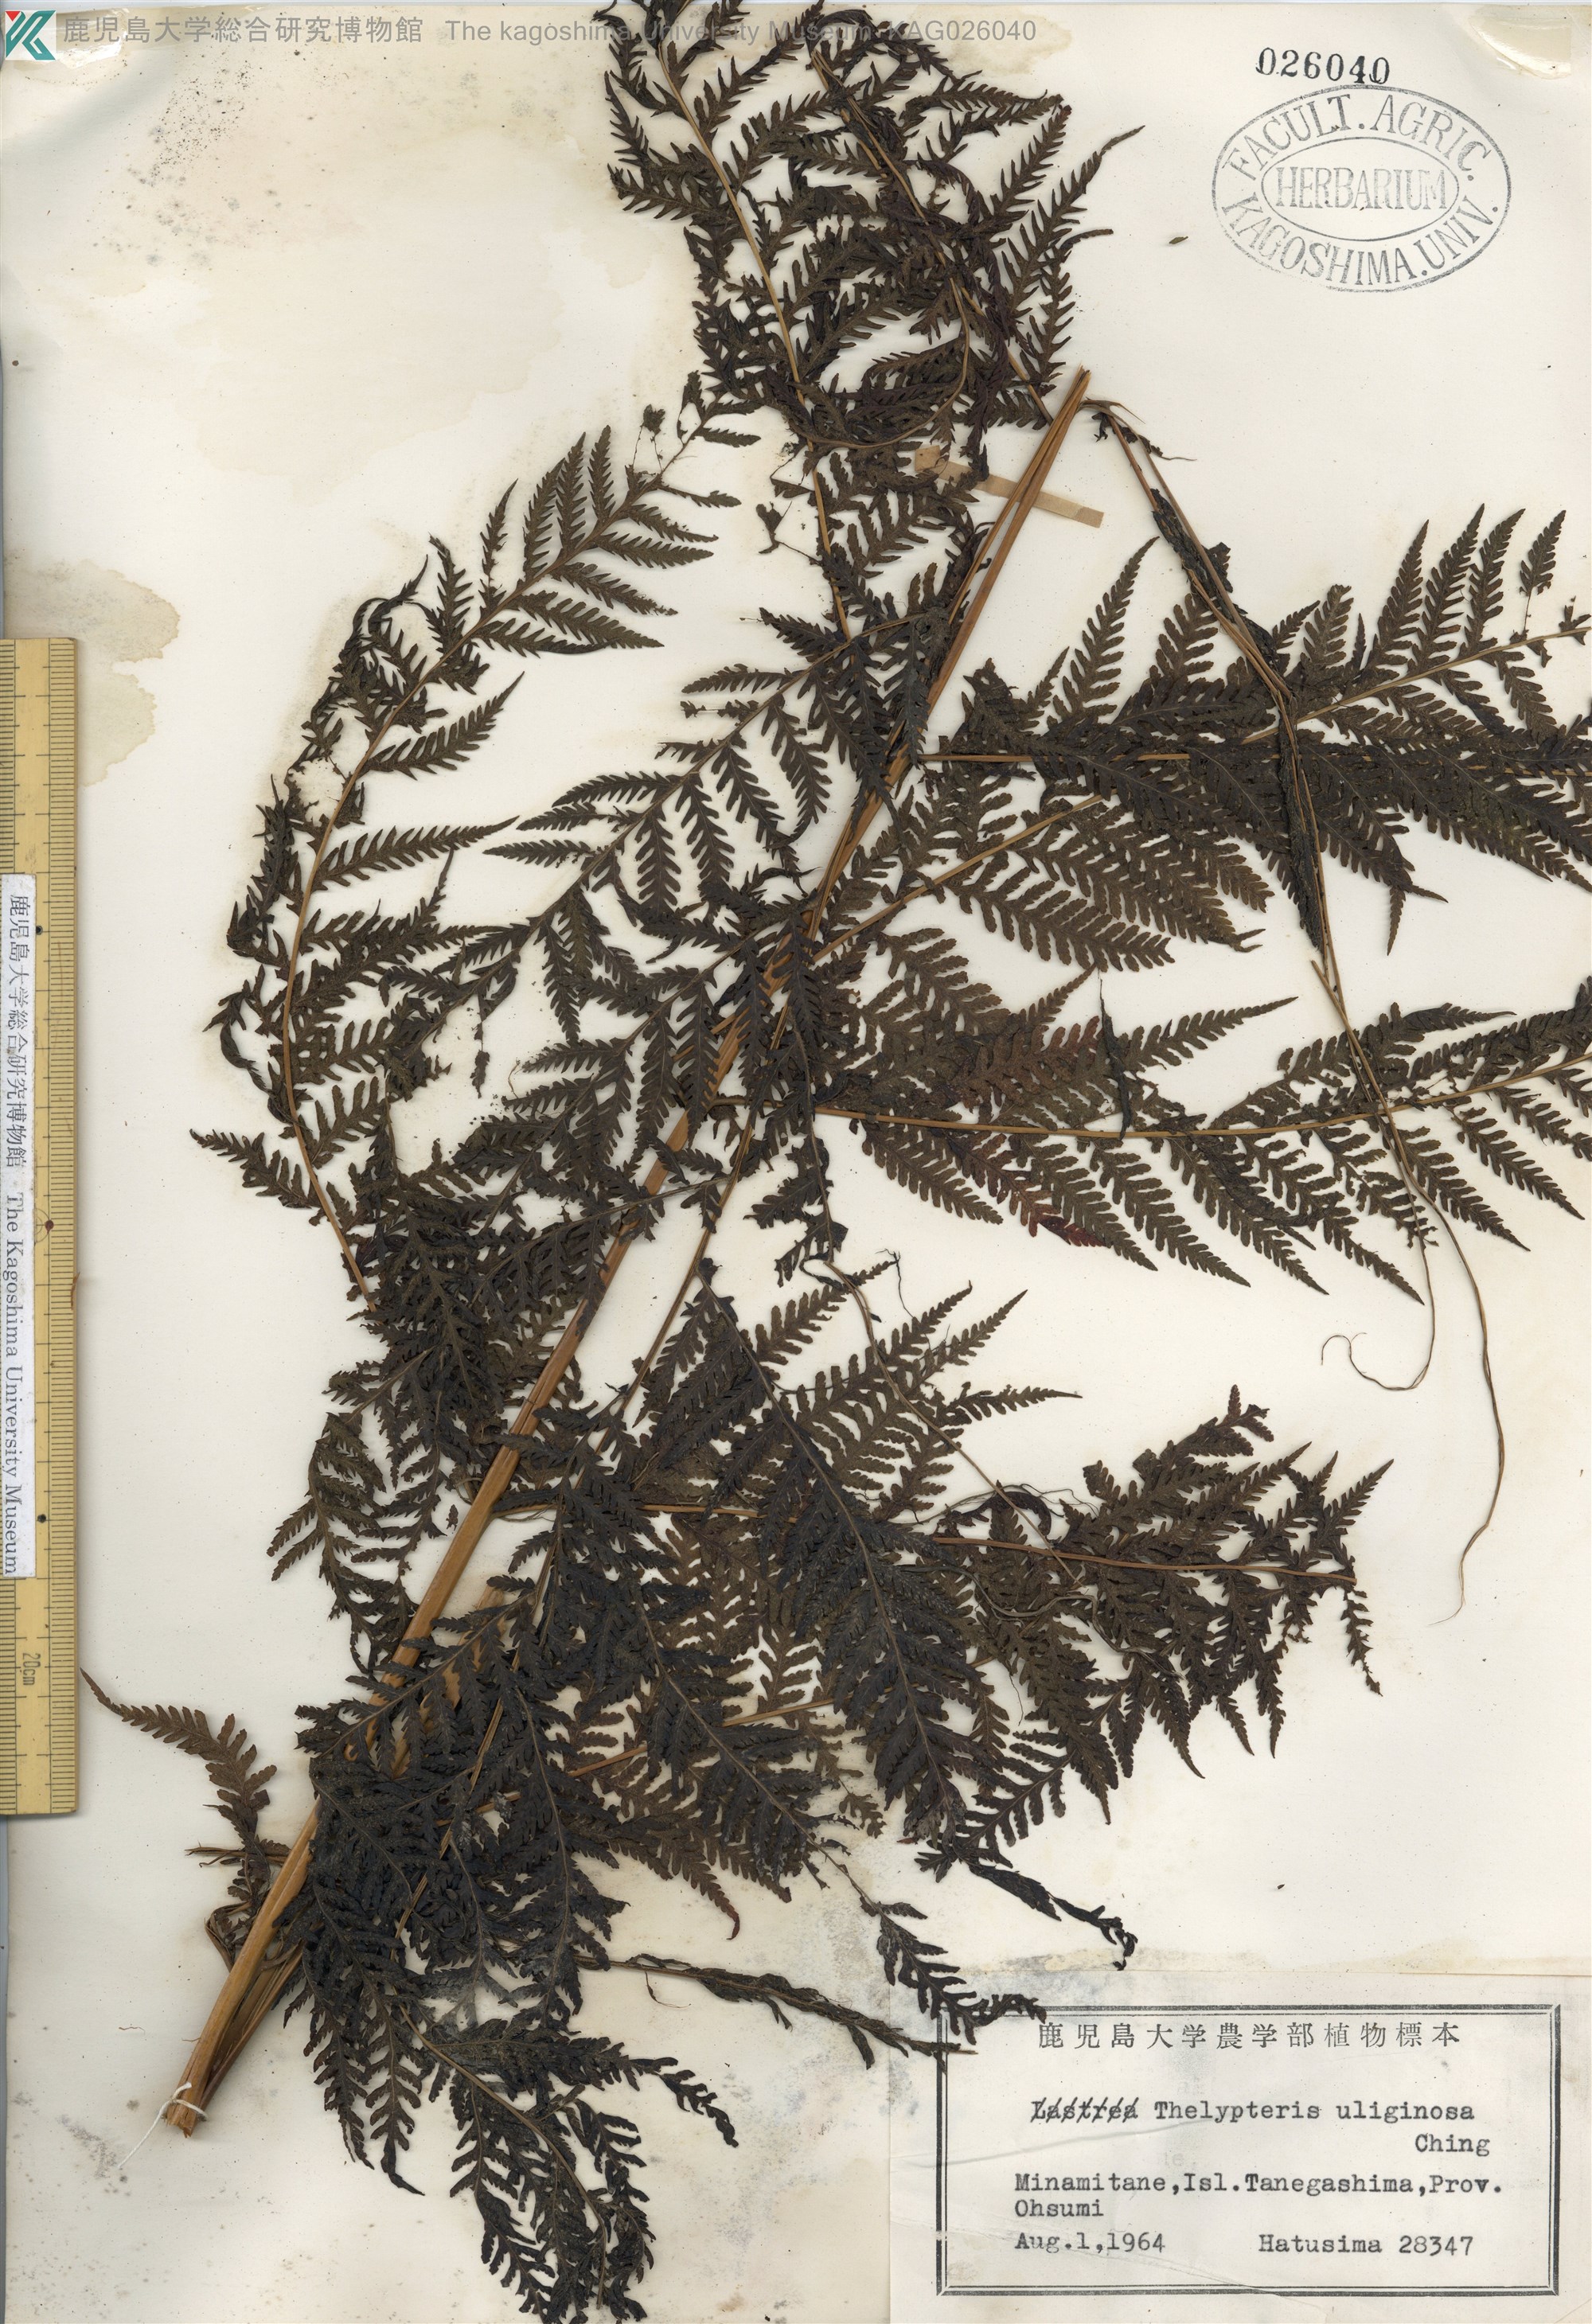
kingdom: Plantae
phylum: Tracheophyta
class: Polypodiopsida
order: Polypodiales
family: Thelypteridaceae
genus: Macrothelypteris
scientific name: Macrothelypteris oligophlebia
